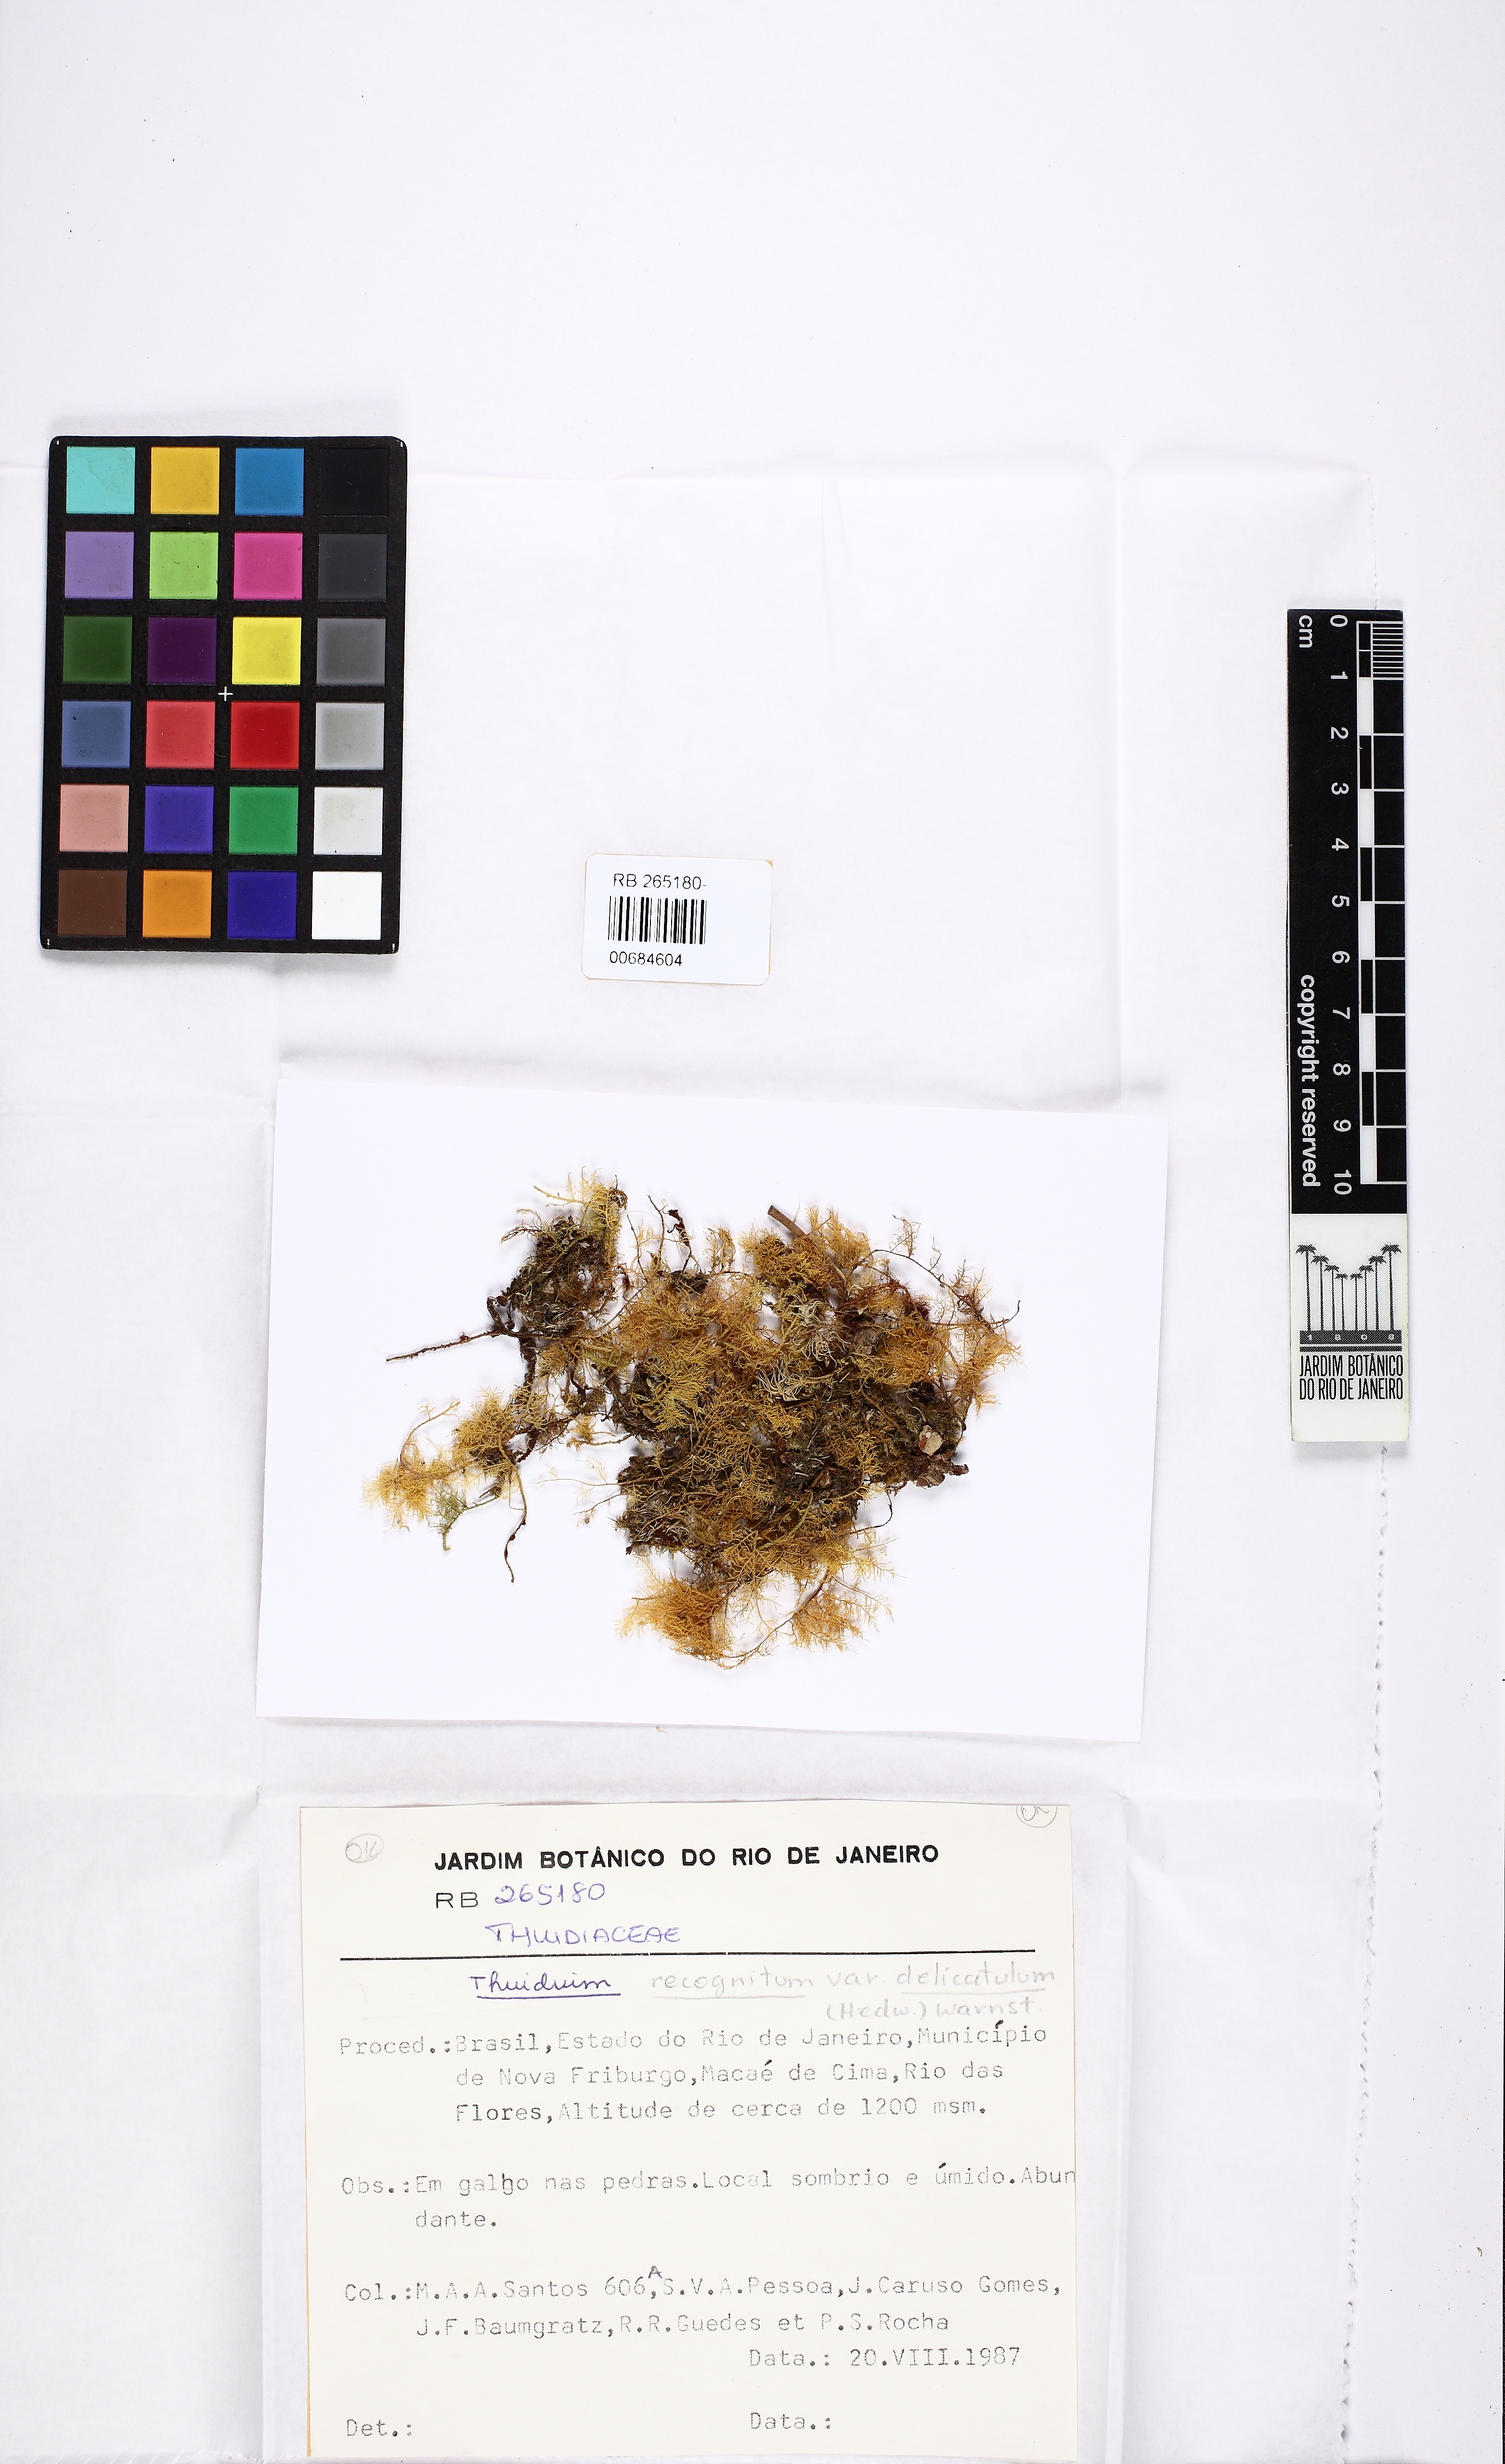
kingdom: Plantae
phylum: Bryophyta
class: Bryopsida
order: Hypnales
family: Thuidiaceae
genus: Thuidium
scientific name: Thuidium delicatulum
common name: Delicate fern moss
